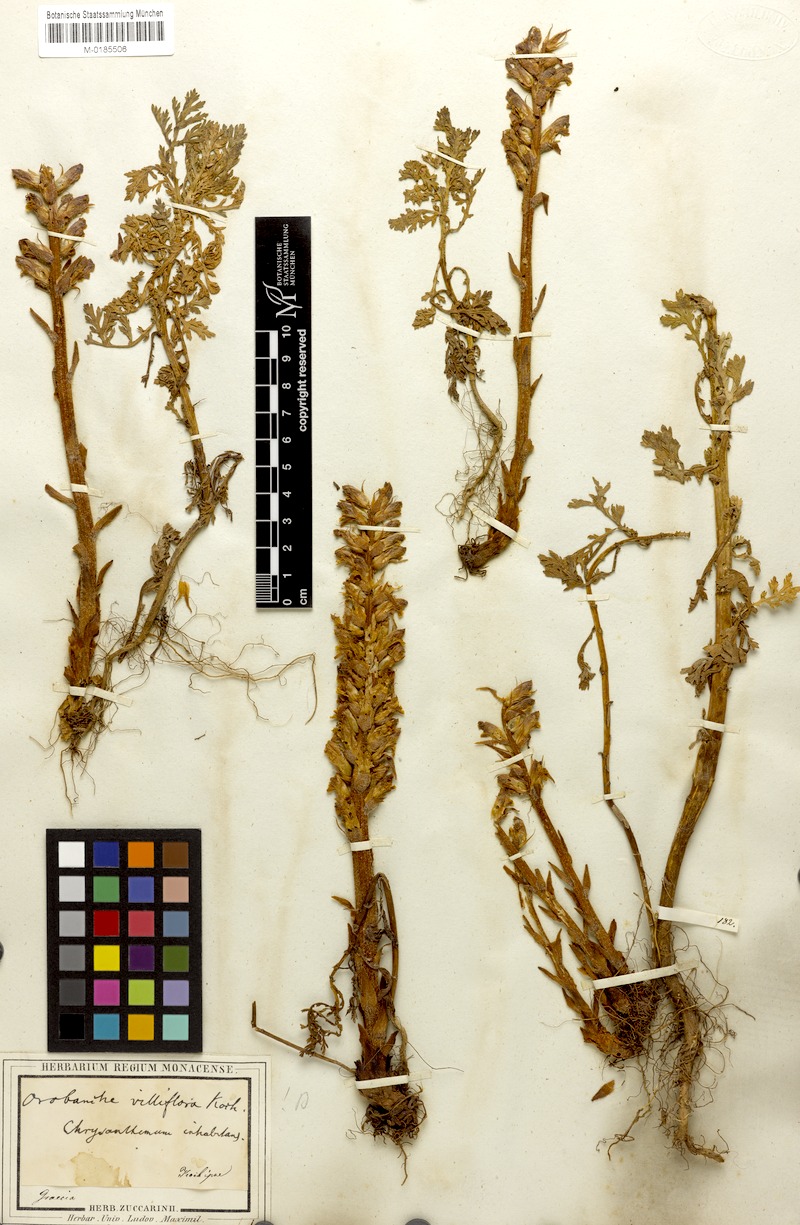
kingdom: Plantae
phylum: Tracheophyta
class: Magnoliopsida
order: Lamiales
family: Orobanchaceae
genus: Orobanche
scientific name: Orobanche pubescens
